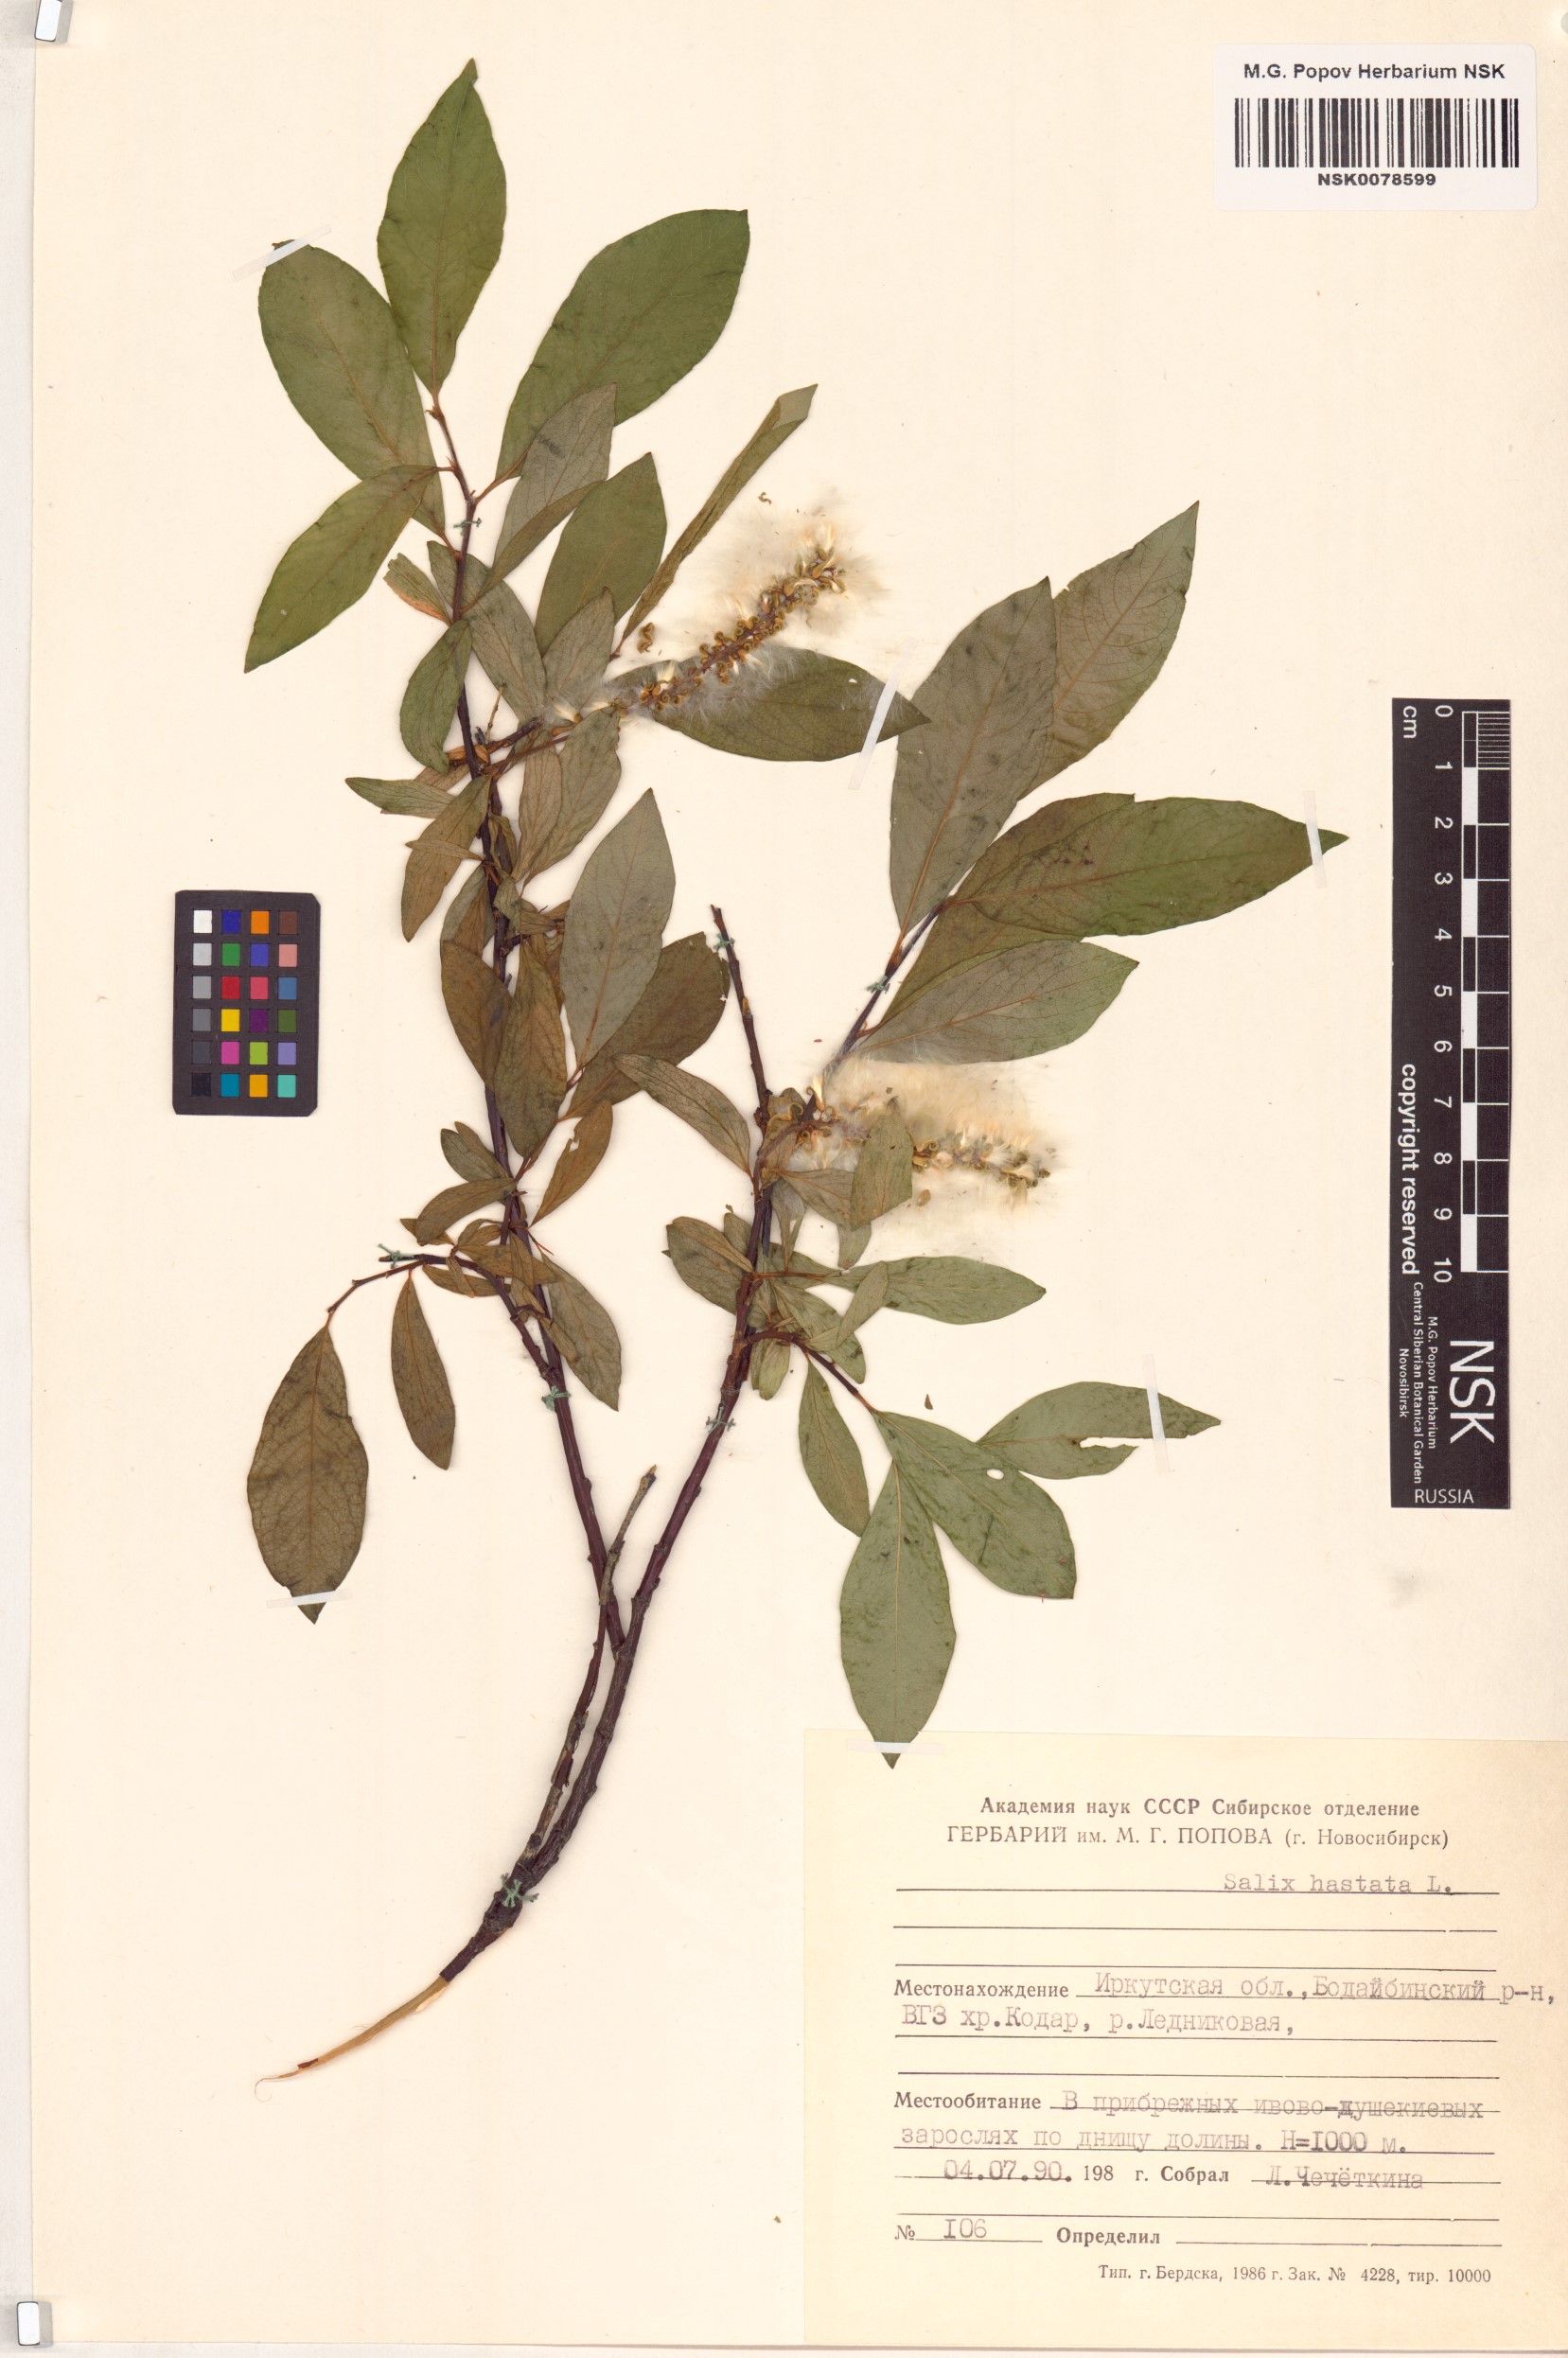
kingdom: Plantae
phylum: Tracheophyta
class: Magnoliopsida
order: Malpighiales
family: Salicaceae
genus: Salix
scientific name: Salix hastata
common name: Halberd willow
